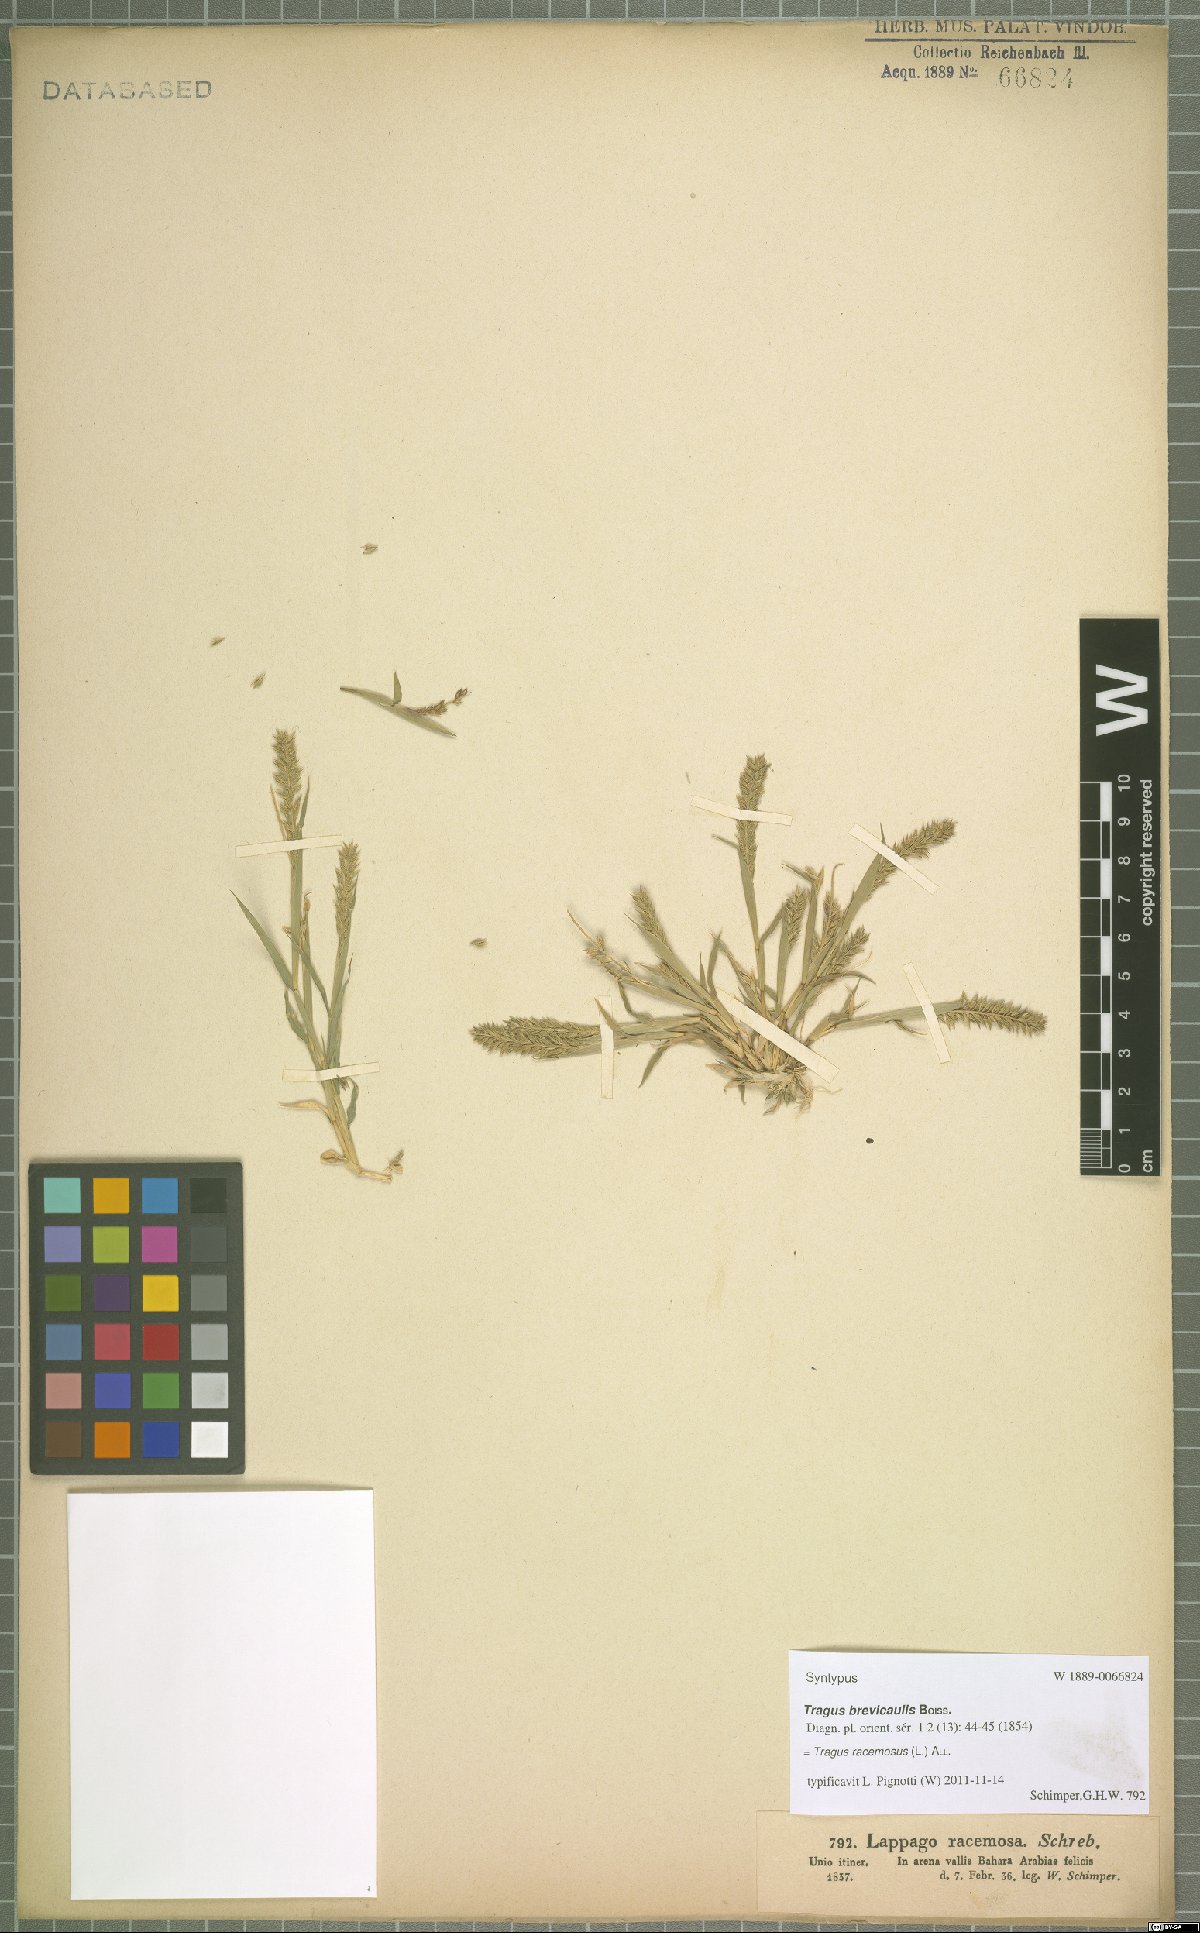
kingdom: Plantae
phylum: Tracheophyta
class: Liliopsida
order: Poales
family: Poaceae
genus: Tragus
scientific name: Tragus racemosus
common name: European bur-grass
